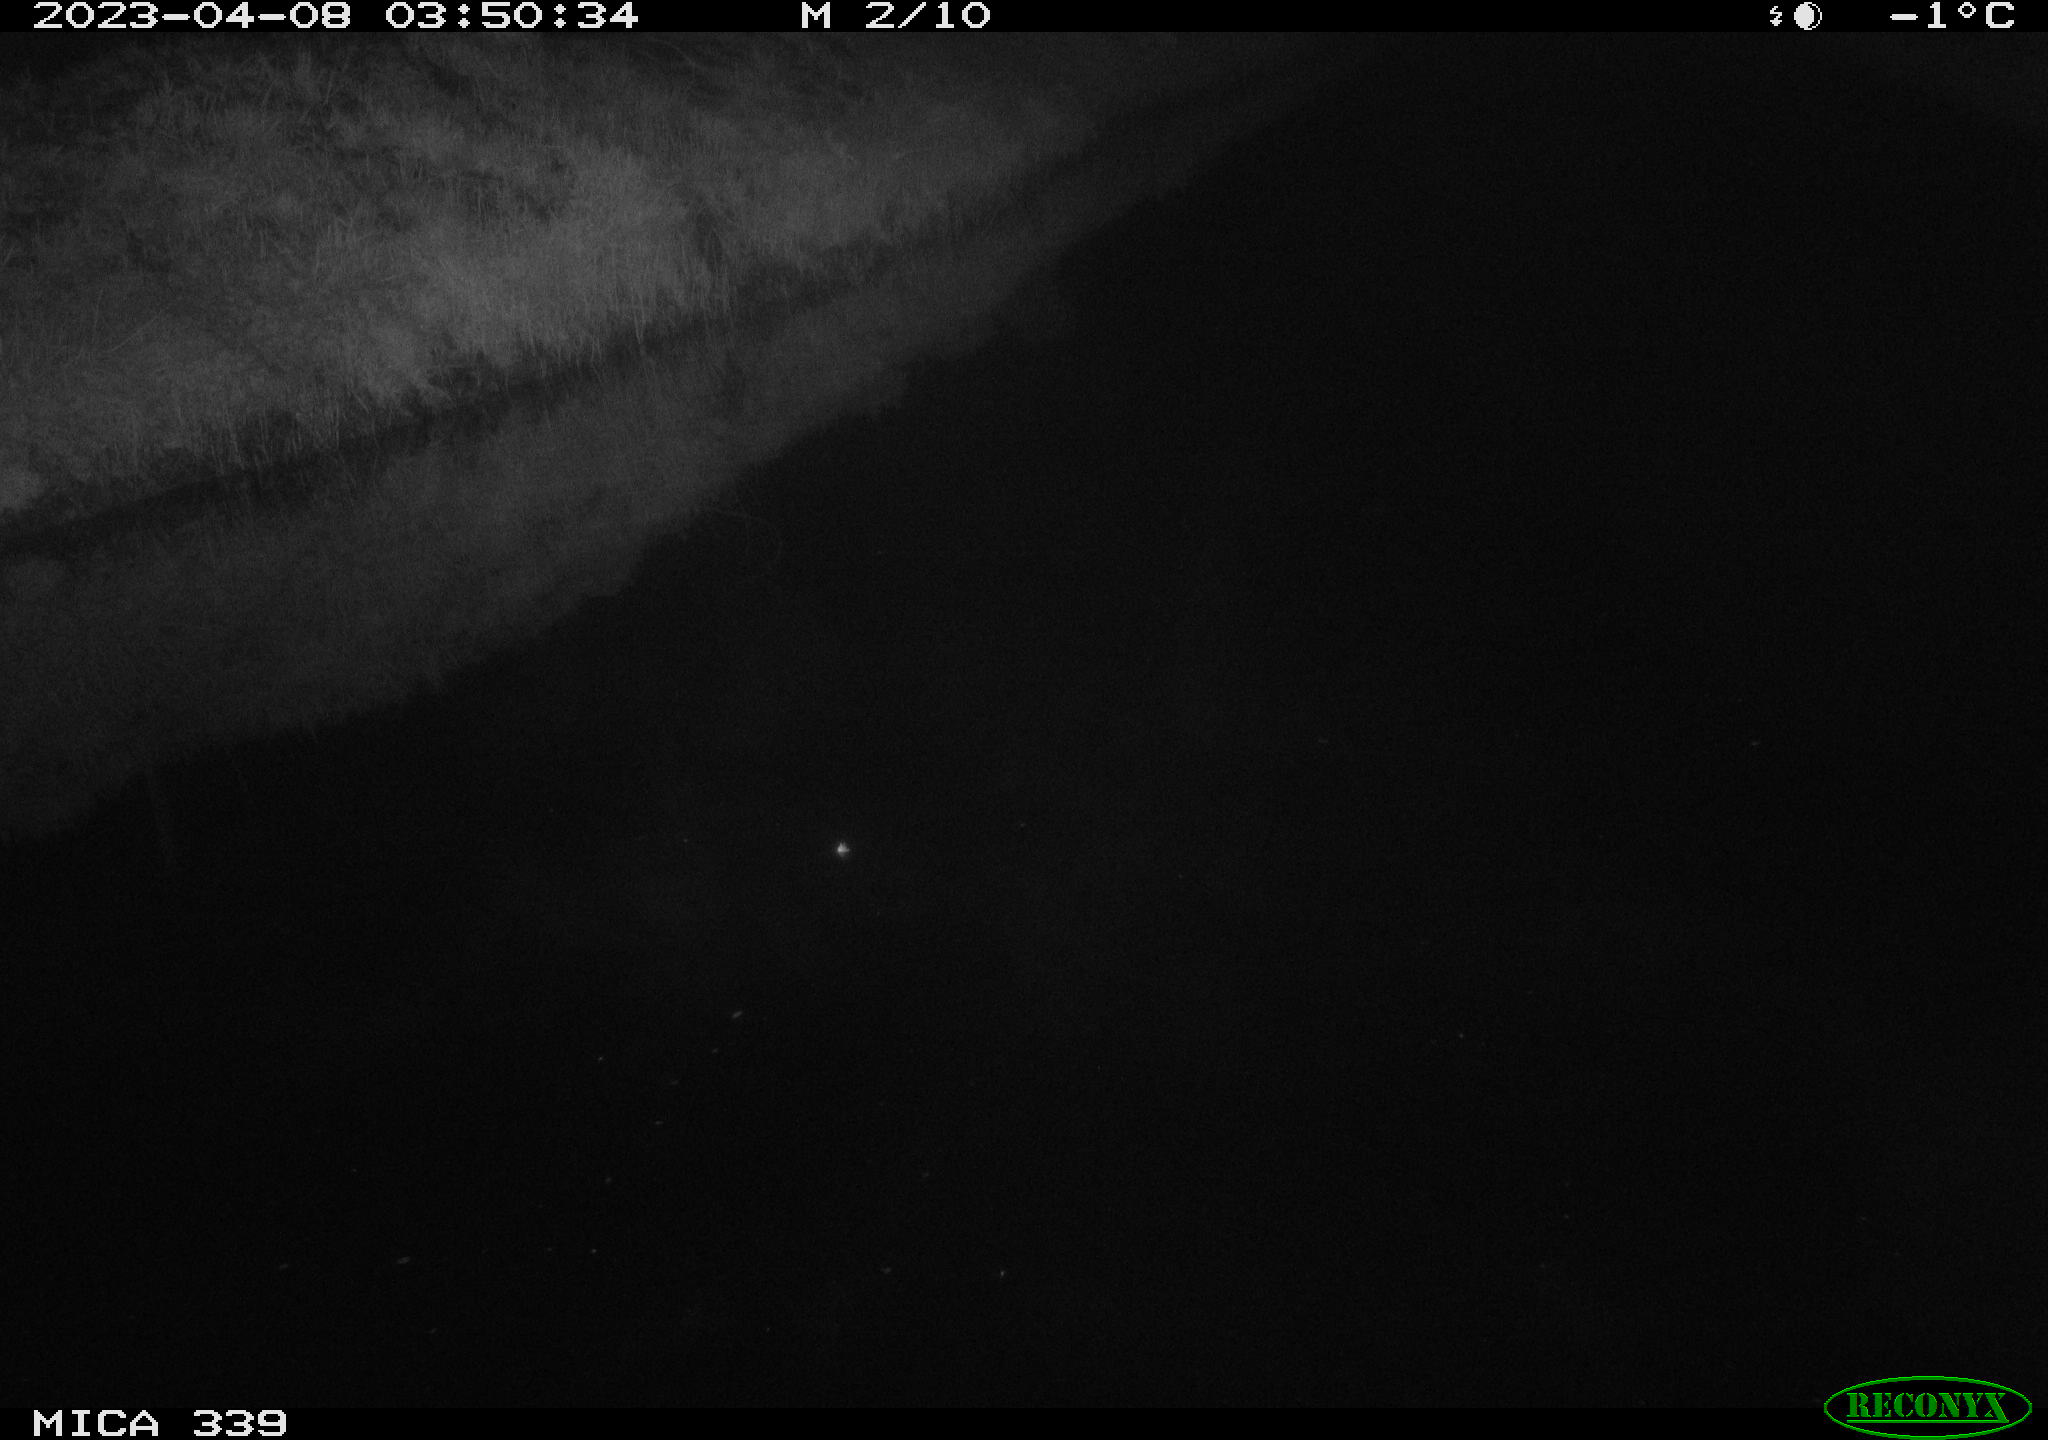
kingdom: Animalia
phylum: Chordata
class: Aves
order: Pelecaniformes
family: Ardeidae
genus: Ardea
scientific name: Ardea cinerea
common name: Grey heron
